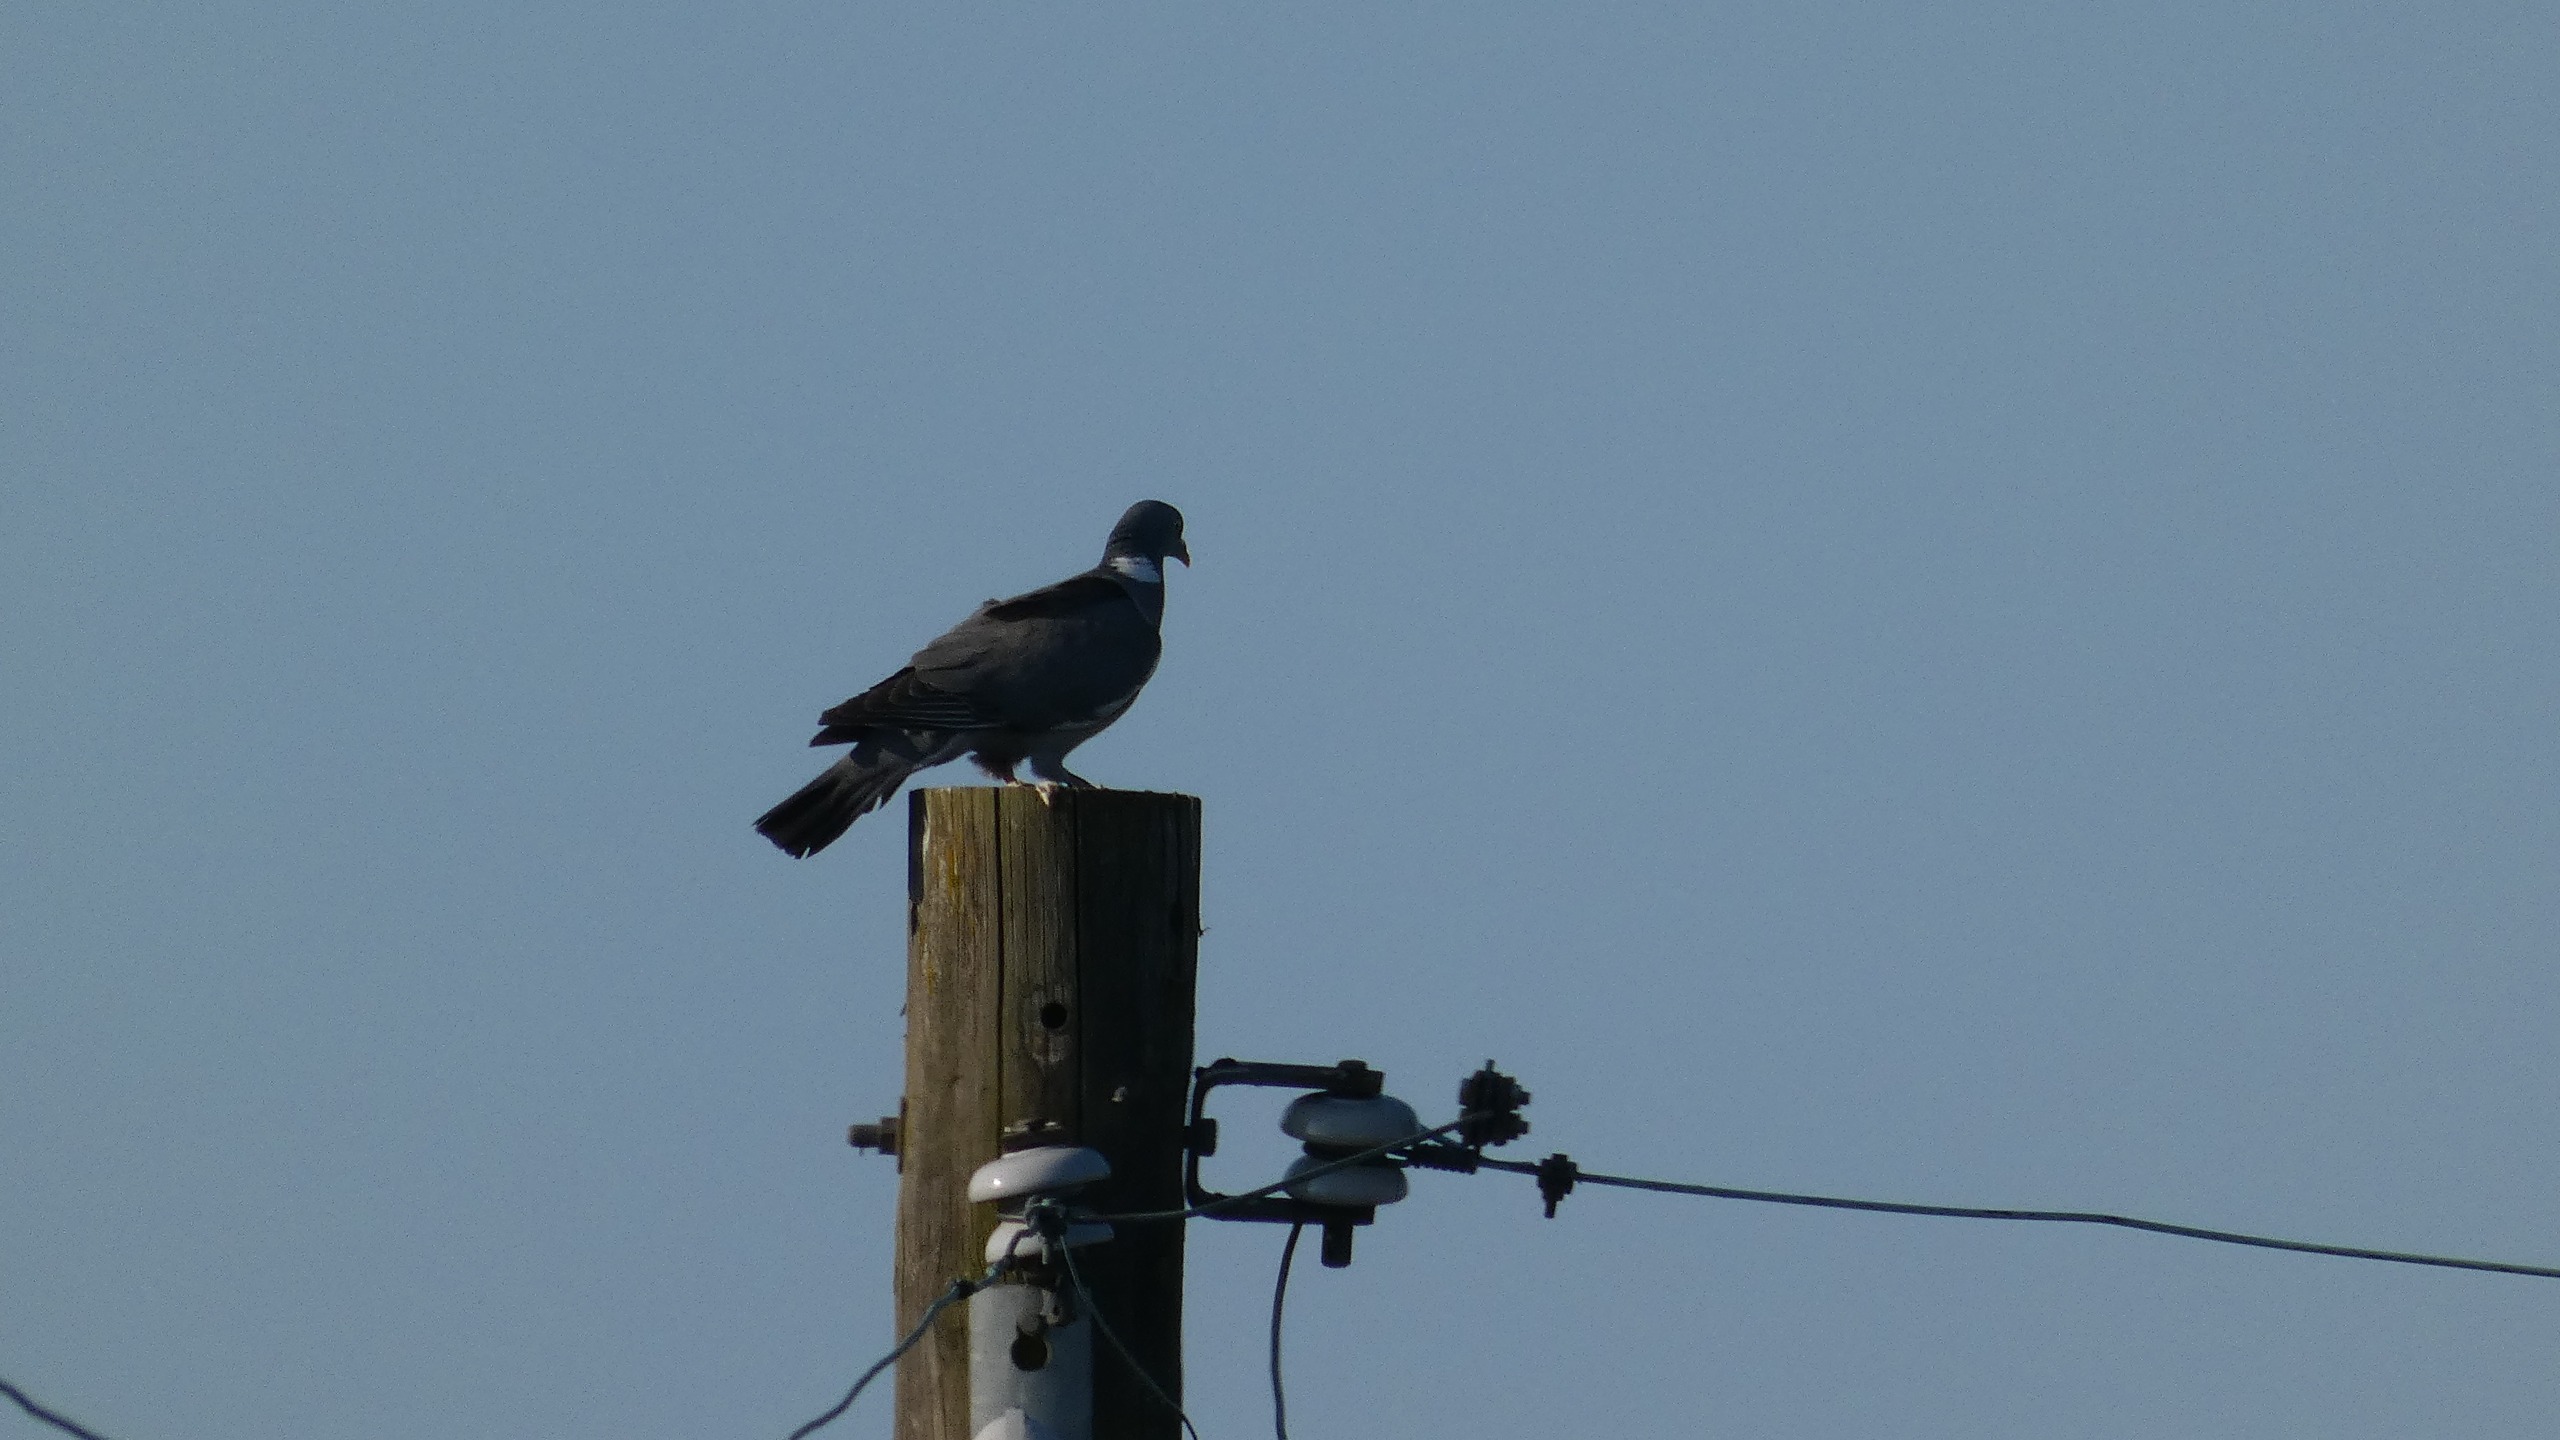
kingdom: Animalia
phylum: Chordata
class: Aves
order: Columbiformes
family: Columbidae
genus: Columba
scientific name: Columba palumbus
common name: Ringdue
